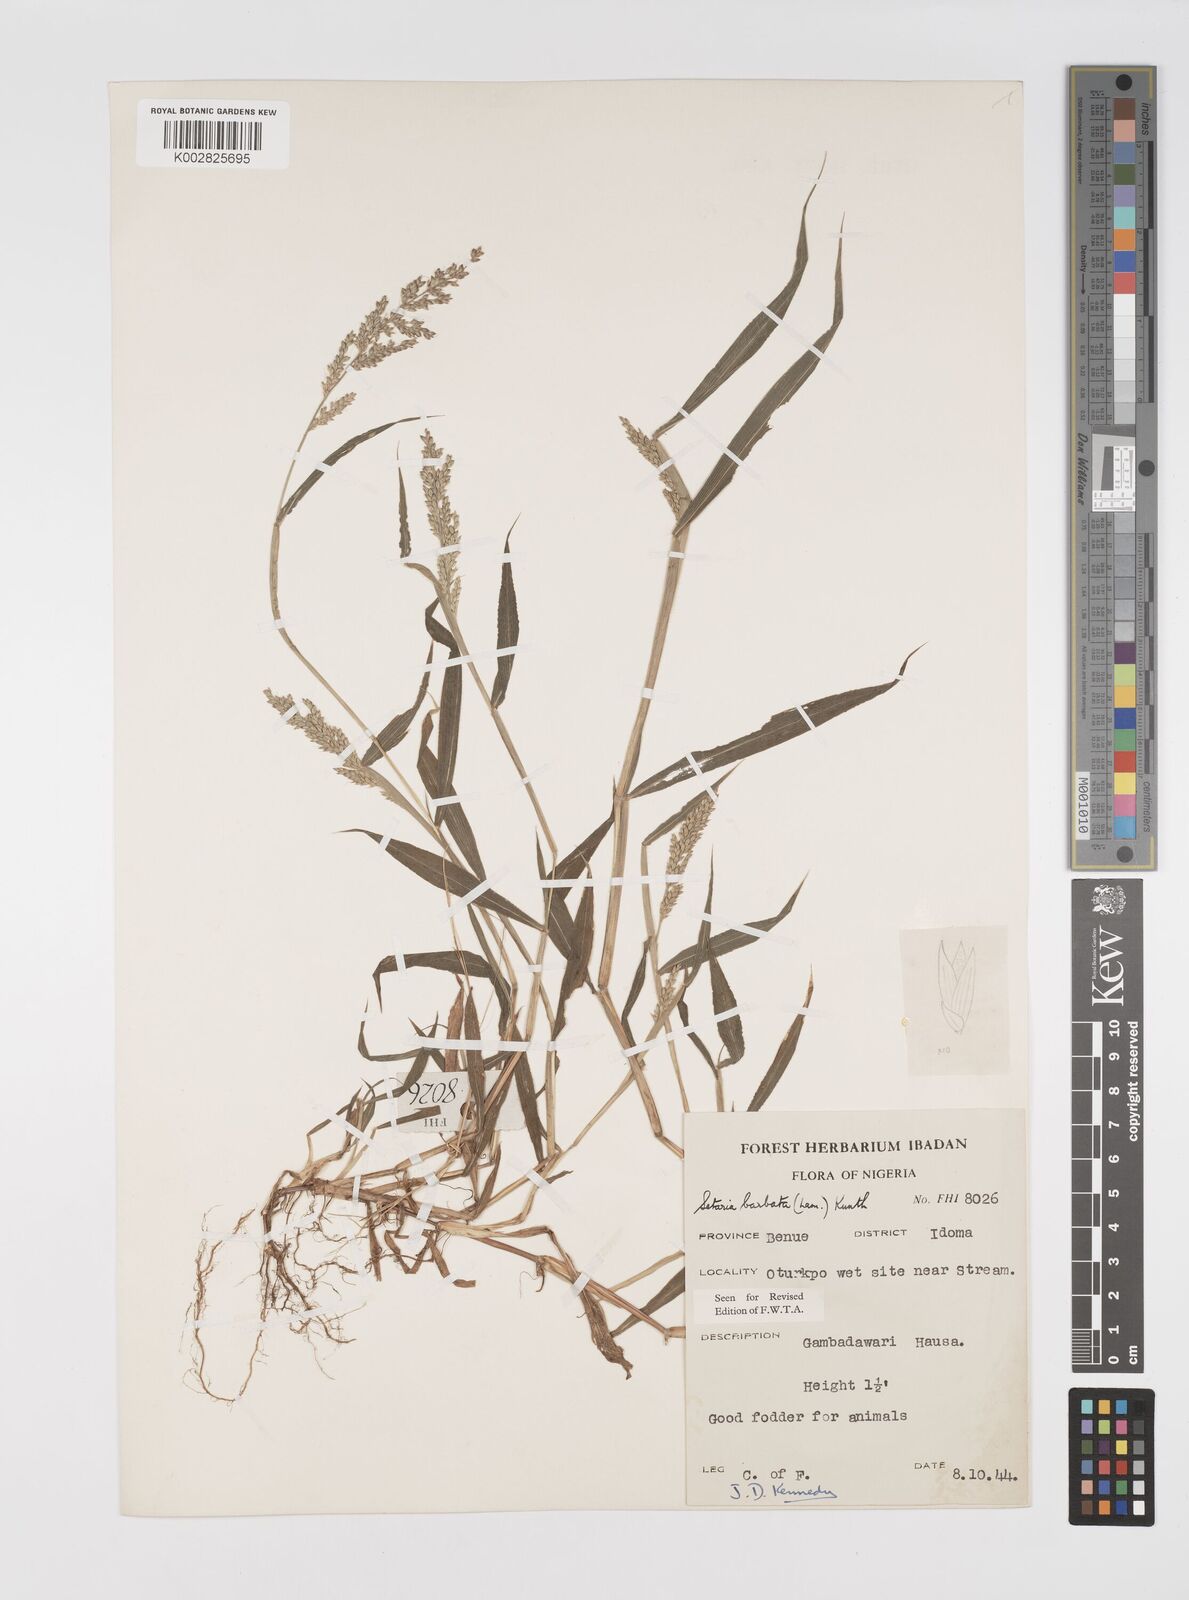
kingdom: Plantae
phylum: Tracheophyta
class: Liliopsida
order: Poales
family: Poaceae
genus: Setaria
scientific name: Setaria barbata
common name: East indian bristlegrass
